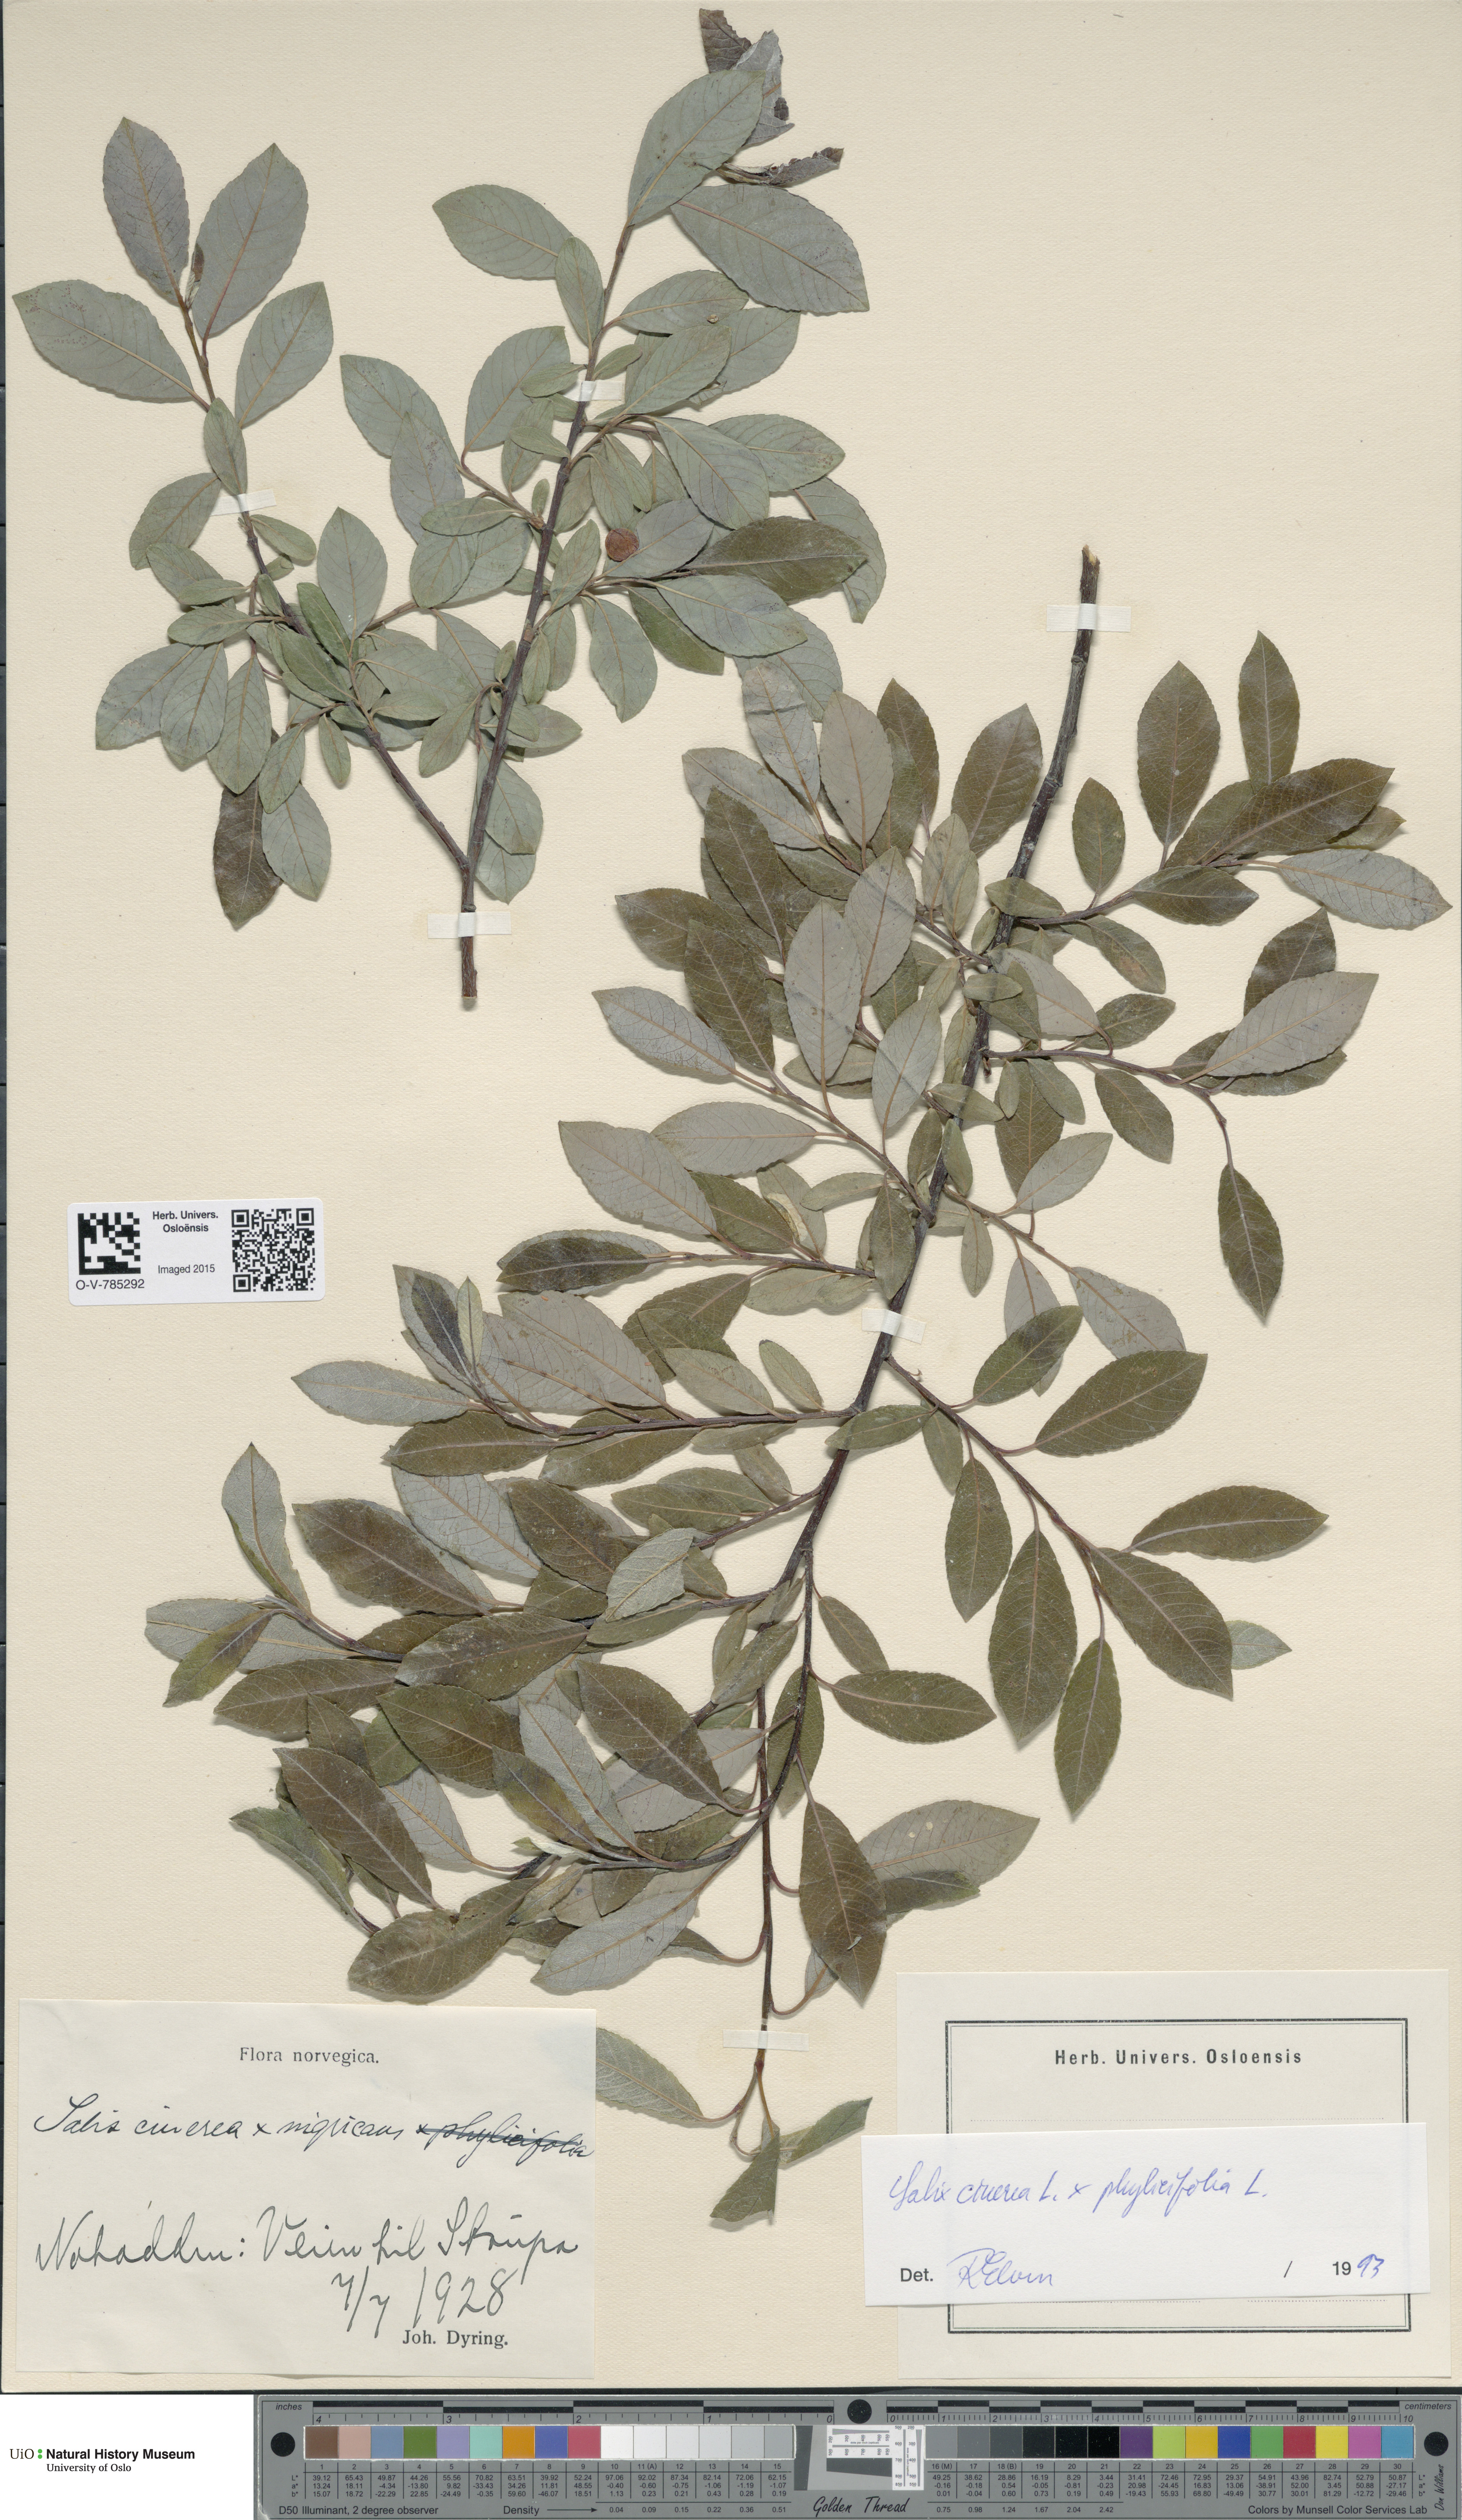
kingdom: Plantae
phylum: Tracheophyta
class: Magnoliopsida
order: Malpighiales
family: Salicaceae
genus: Salix
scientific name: Salix
